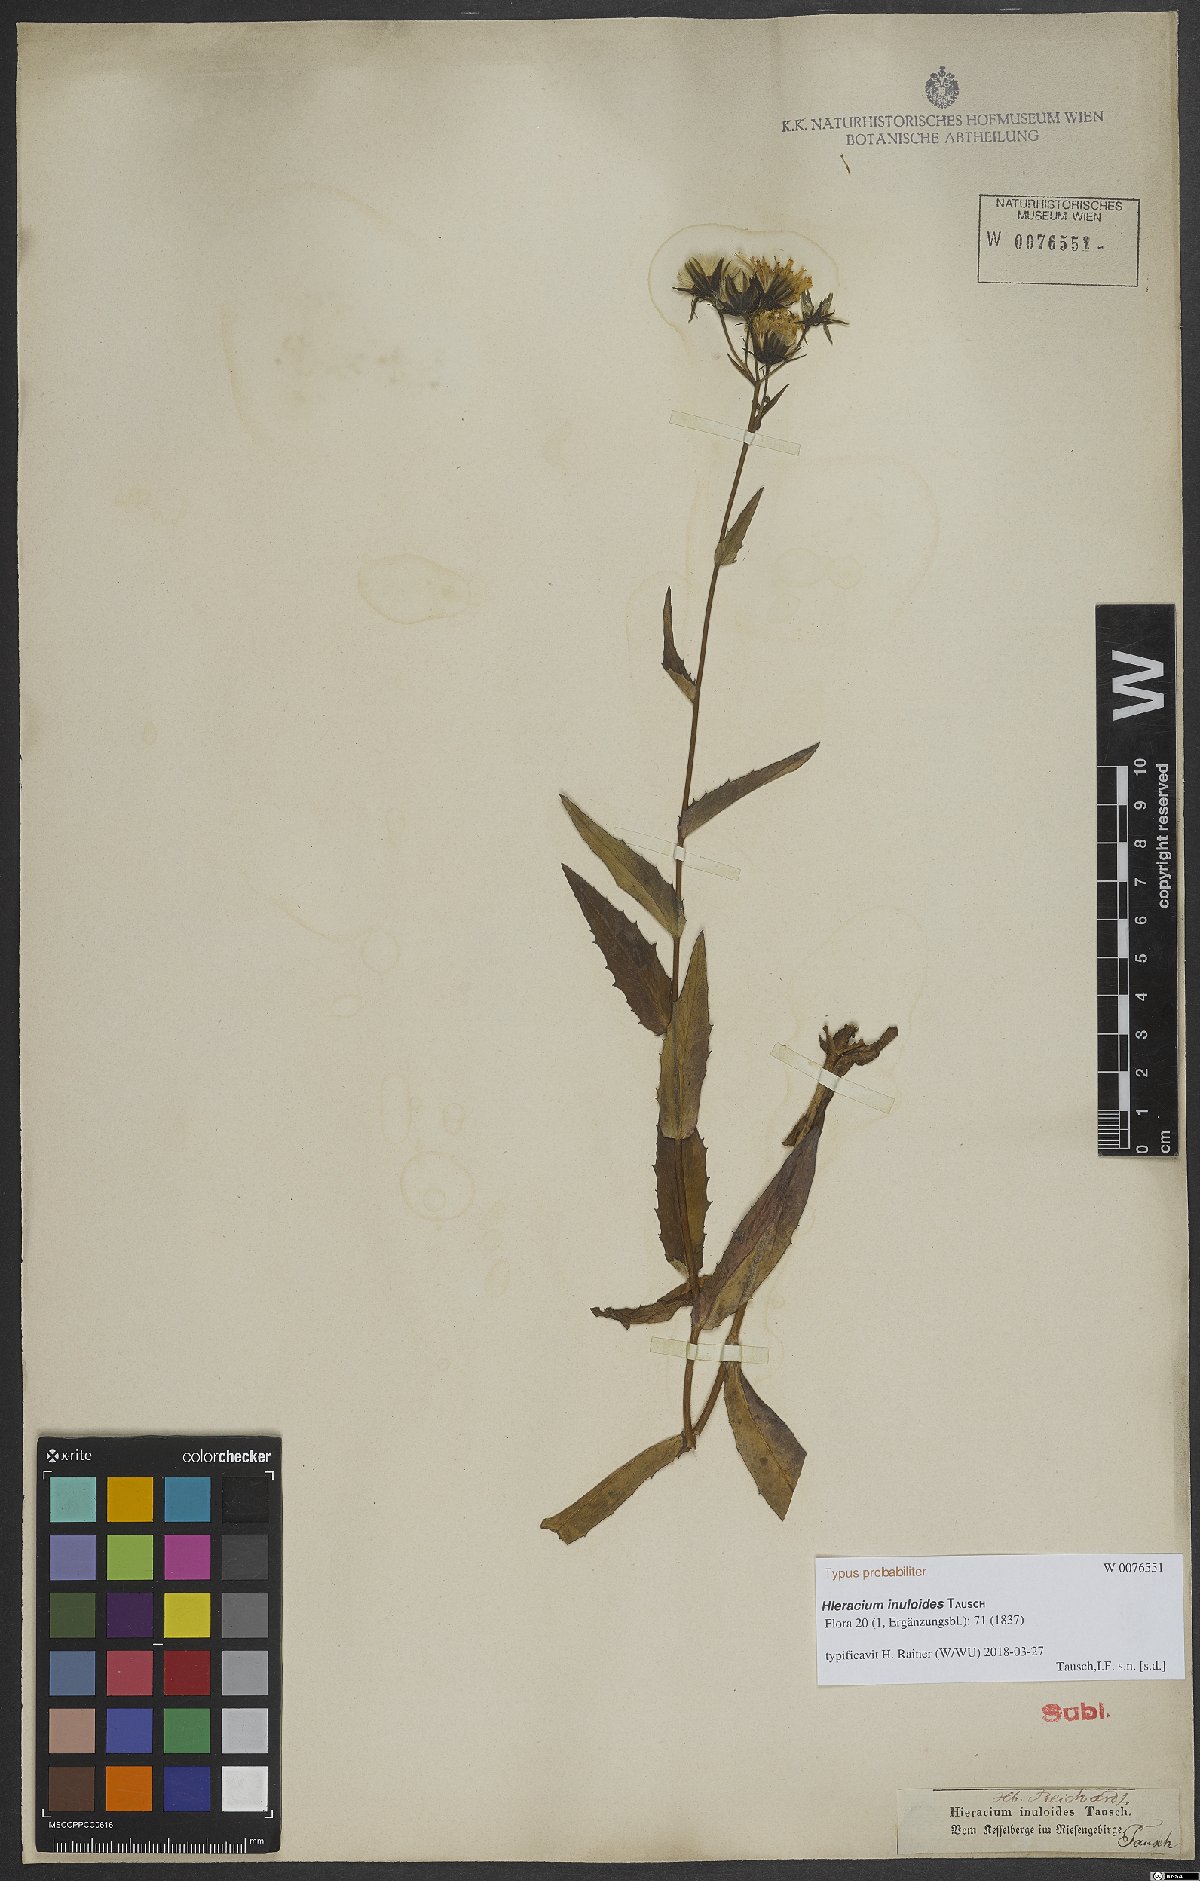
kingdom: Plantae
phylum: Tracheophyta
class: Magnoliopsida
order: Asterales
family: Asteraceae
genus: Hieracium
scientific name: Hieracium inuloides
